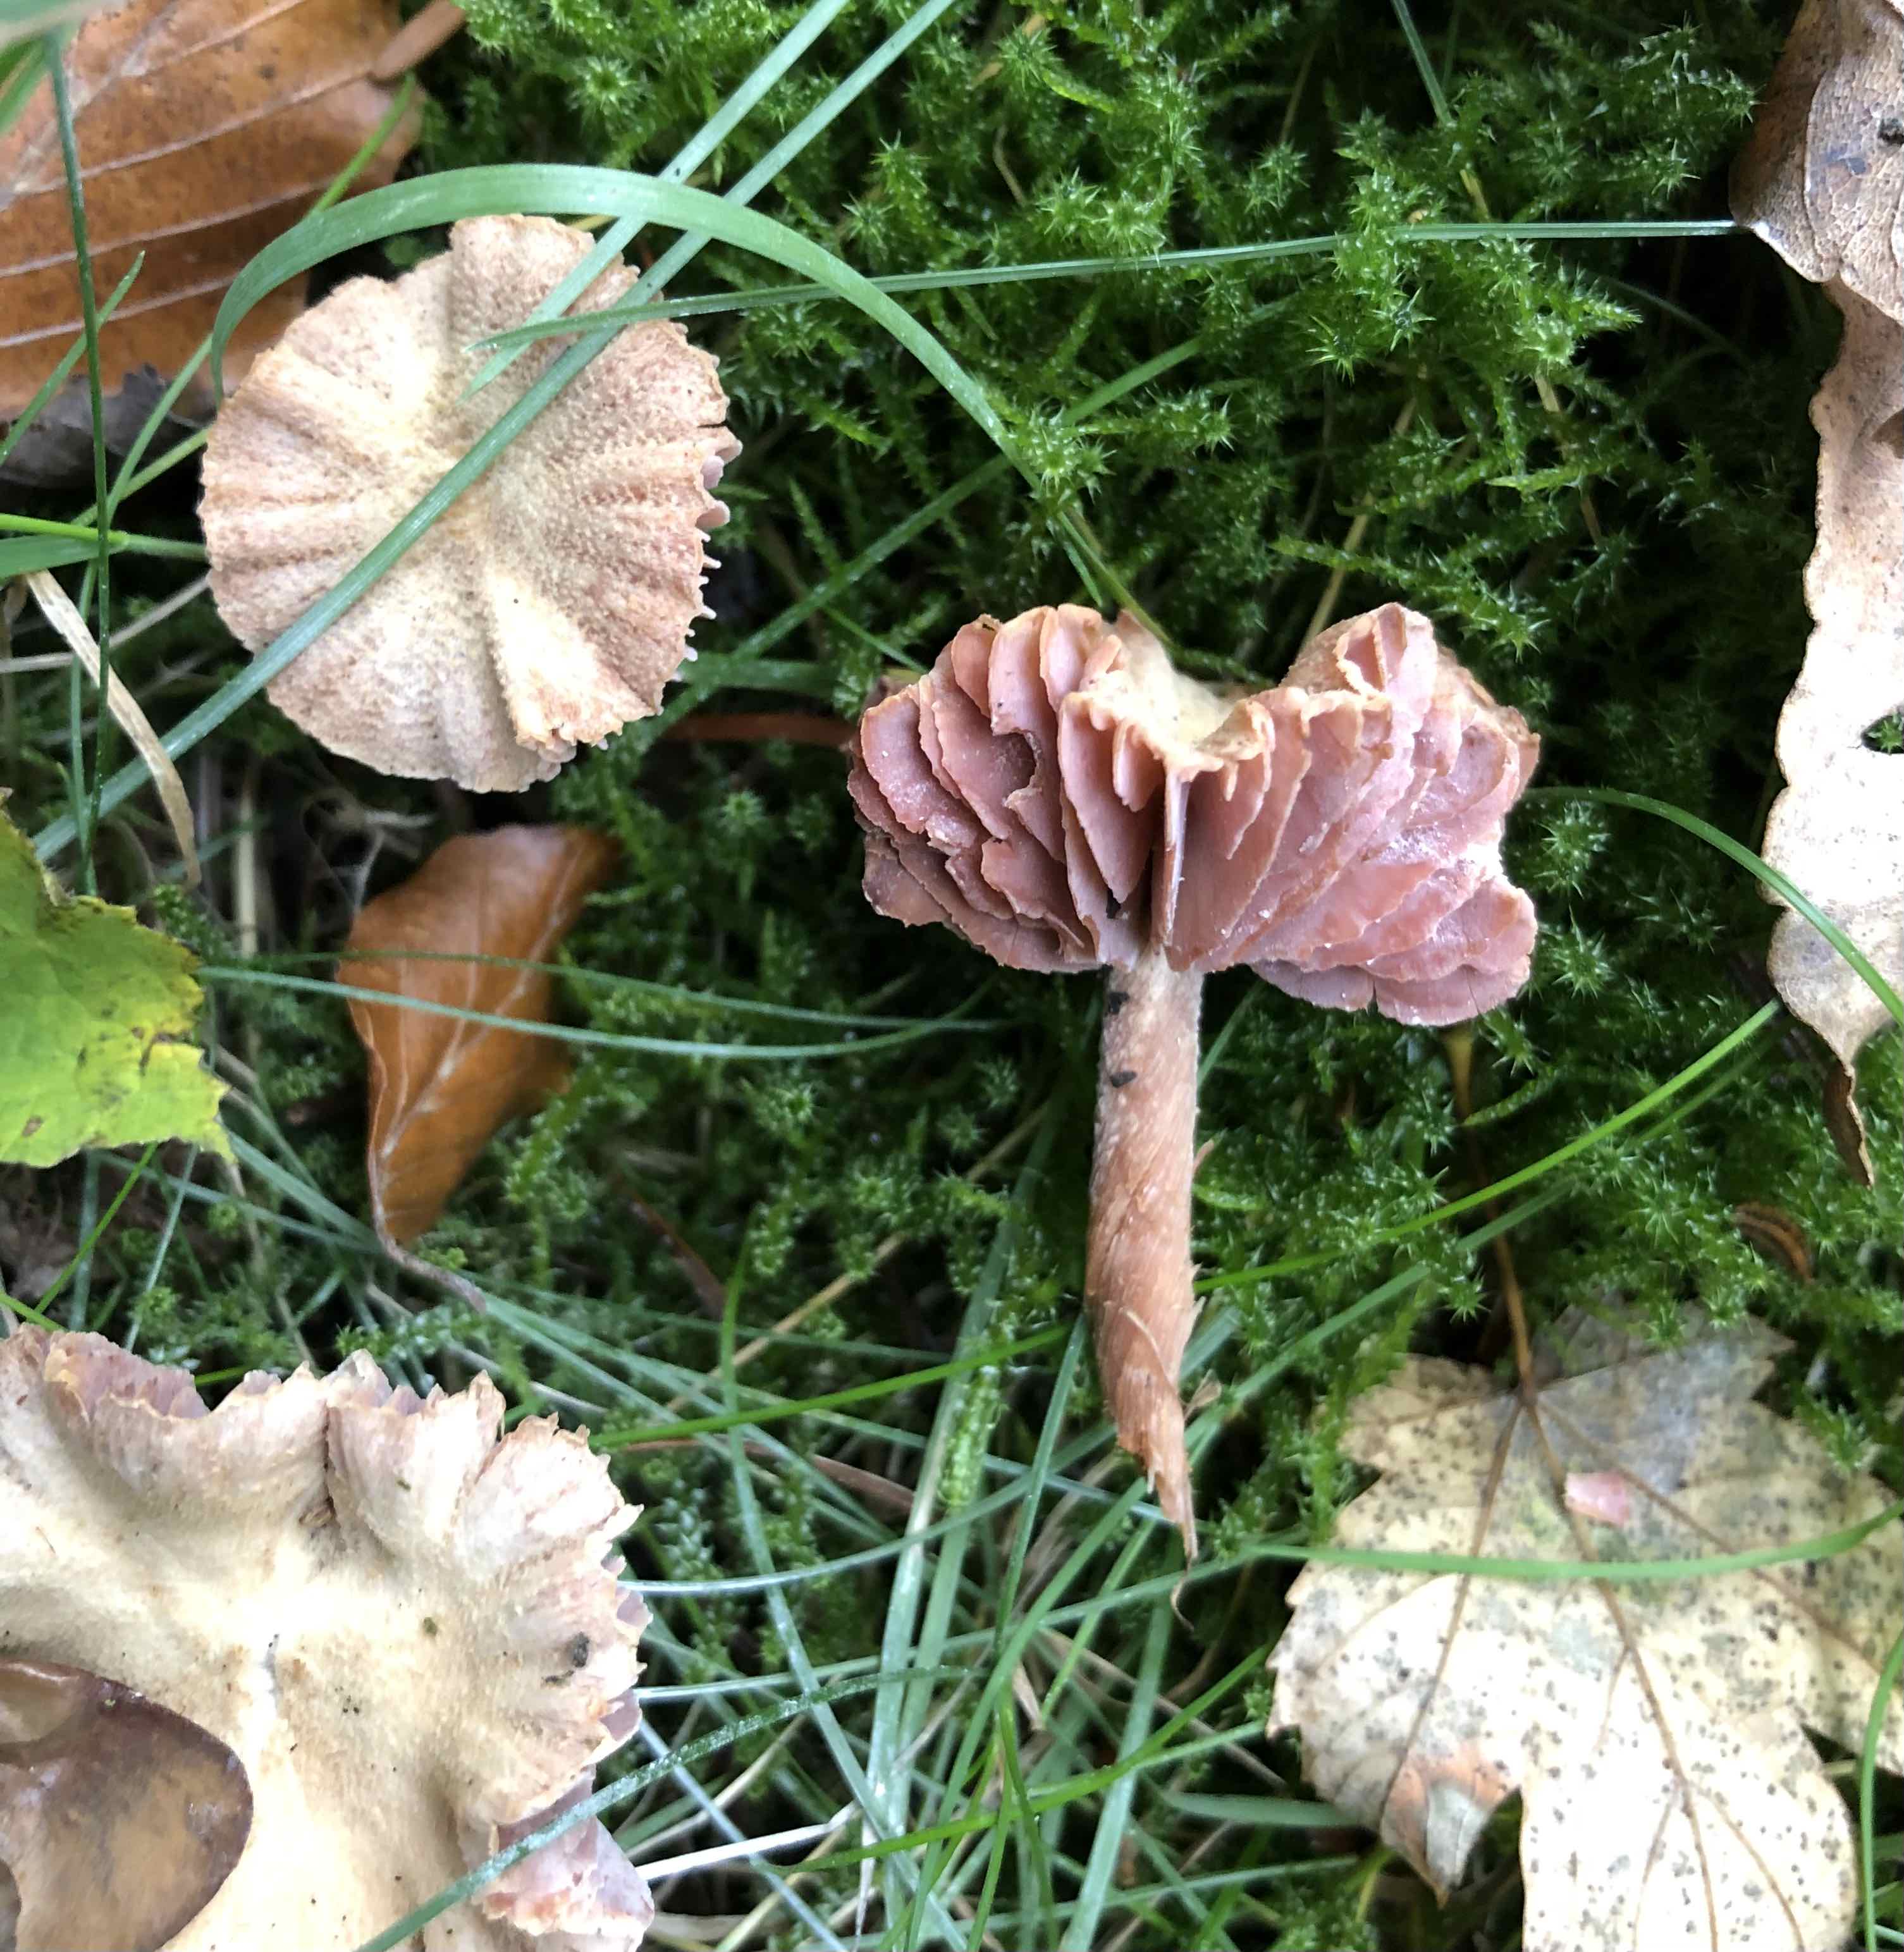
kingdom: Fungi
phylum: Basidiomycota
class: Agaricomycetes
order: Agaricales
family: Hydnangiaceae
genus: Laccaria
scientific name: Laccaria
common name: ametysthat
